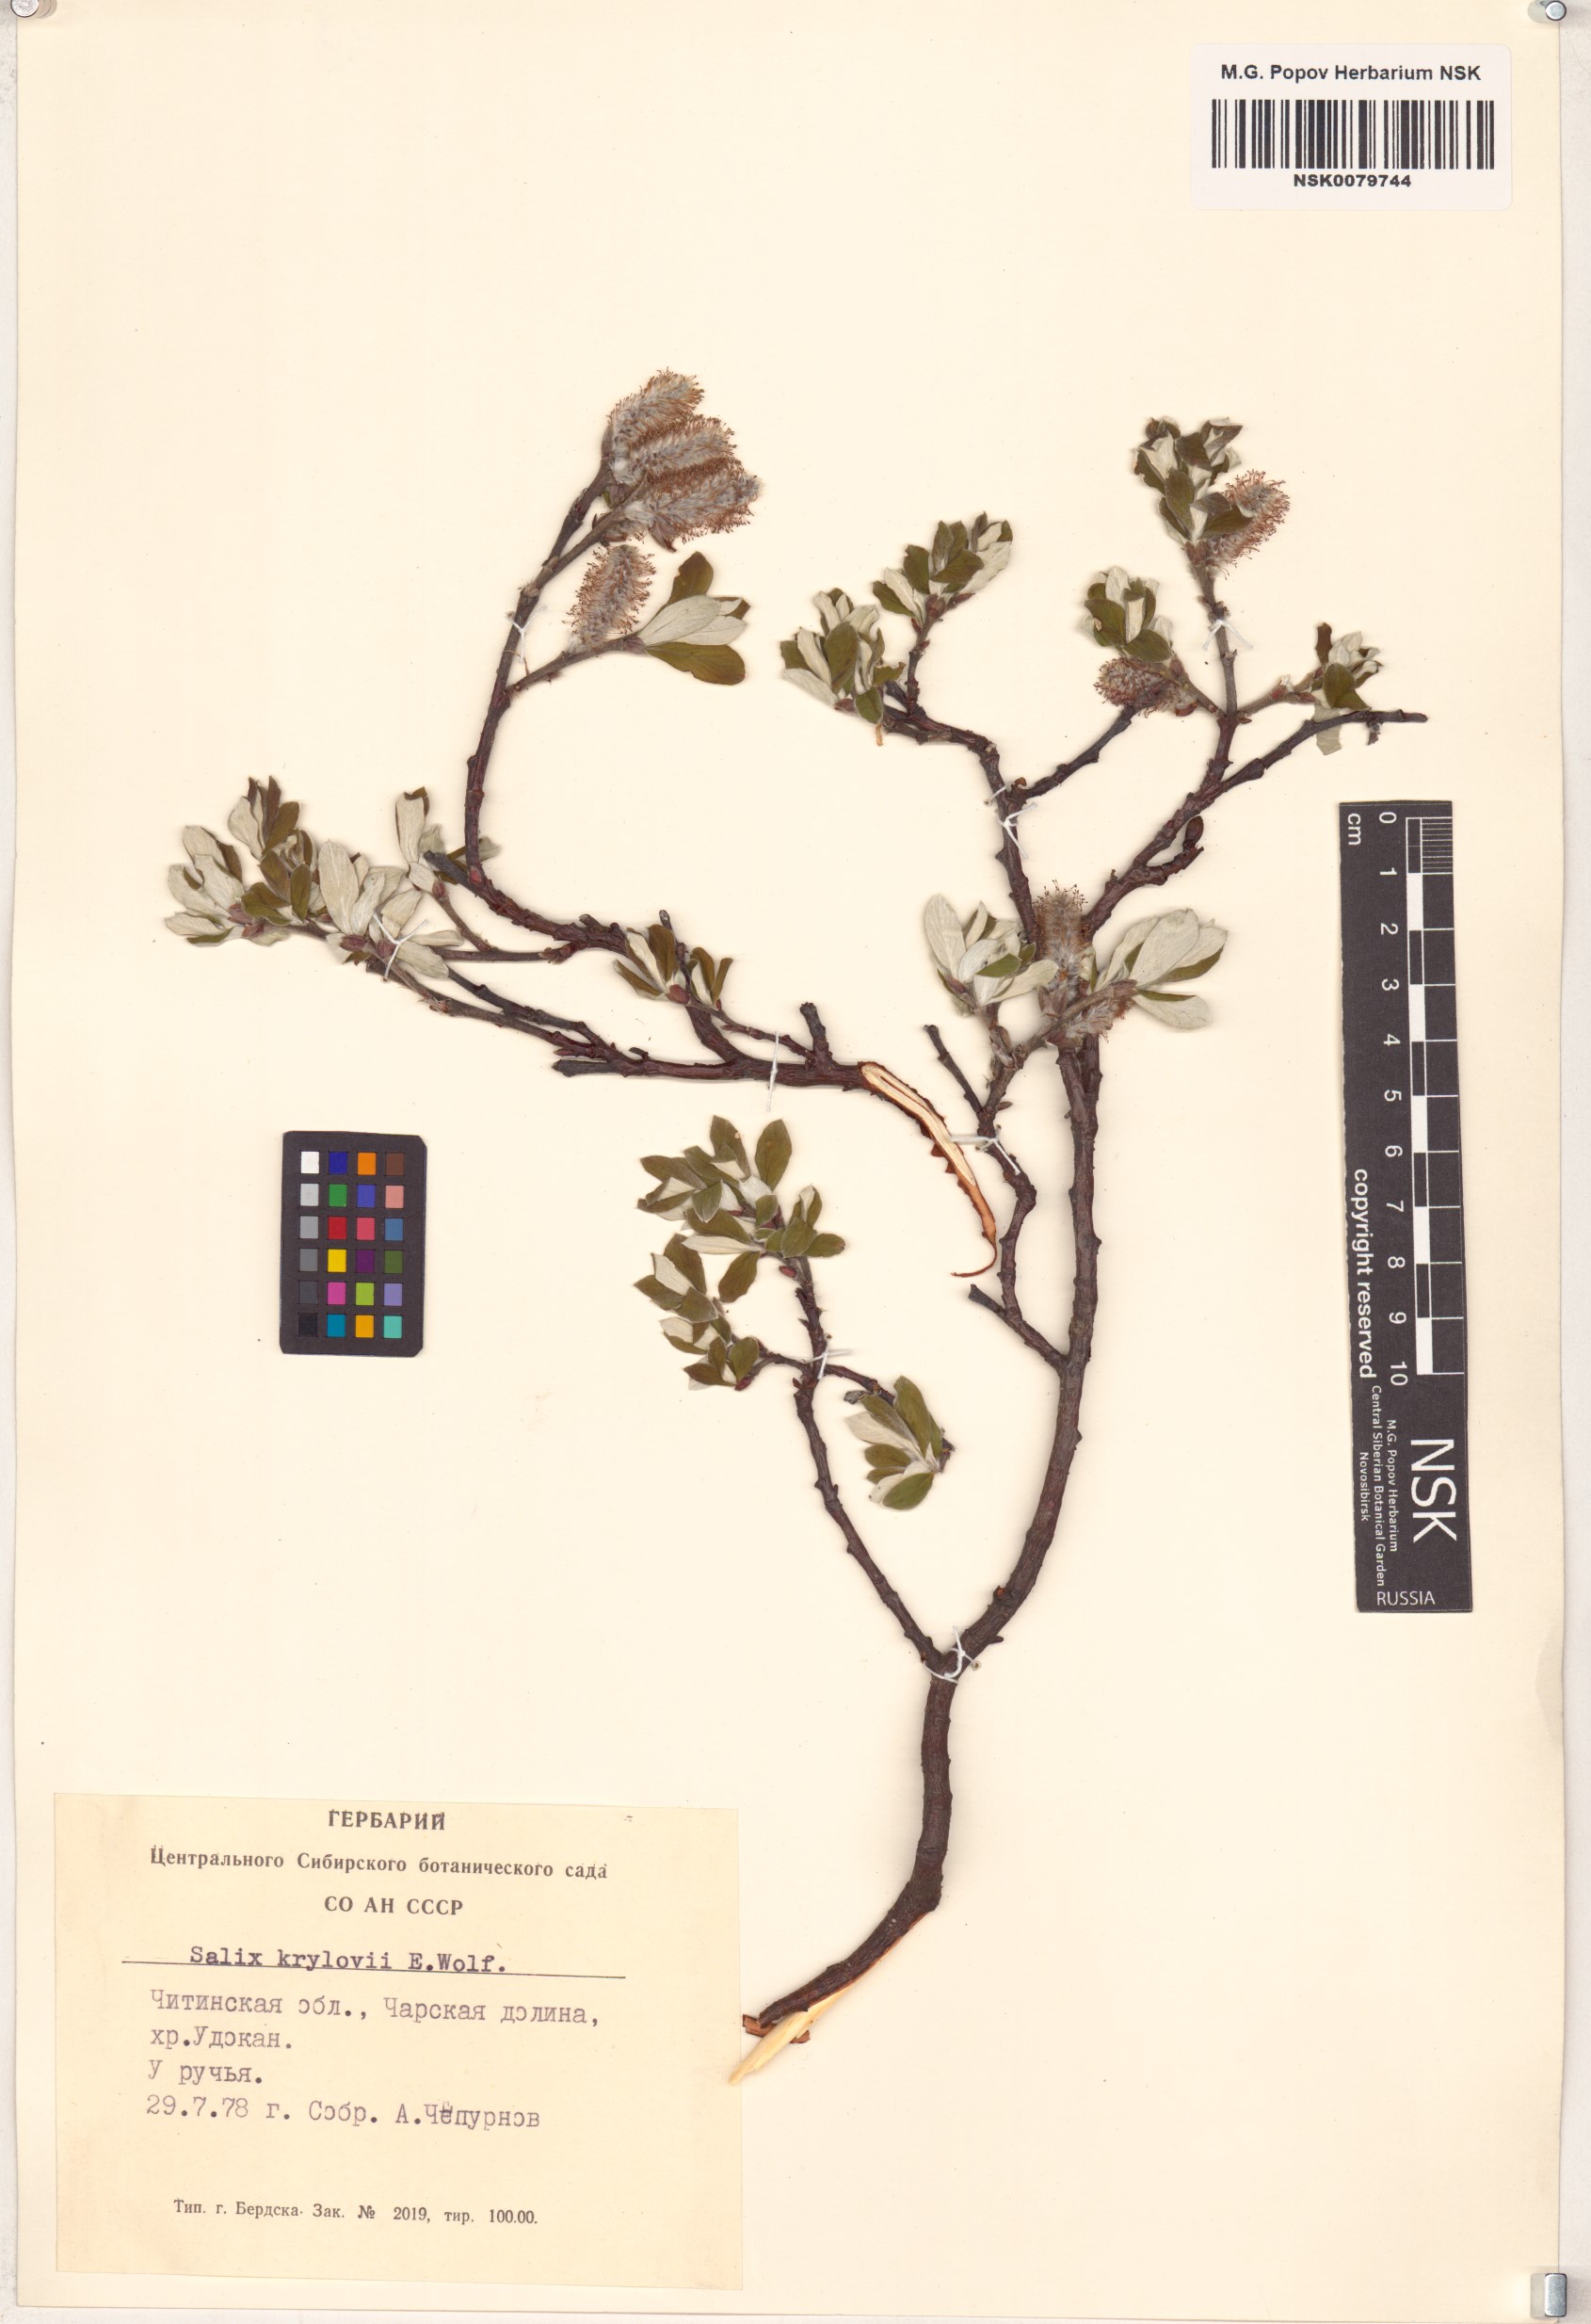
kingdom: Plantae
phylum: Tracheophyta
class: Magnoliopsida
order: Malpighiales
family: Salicaceae
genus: Salix
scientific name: Salix krylovii
